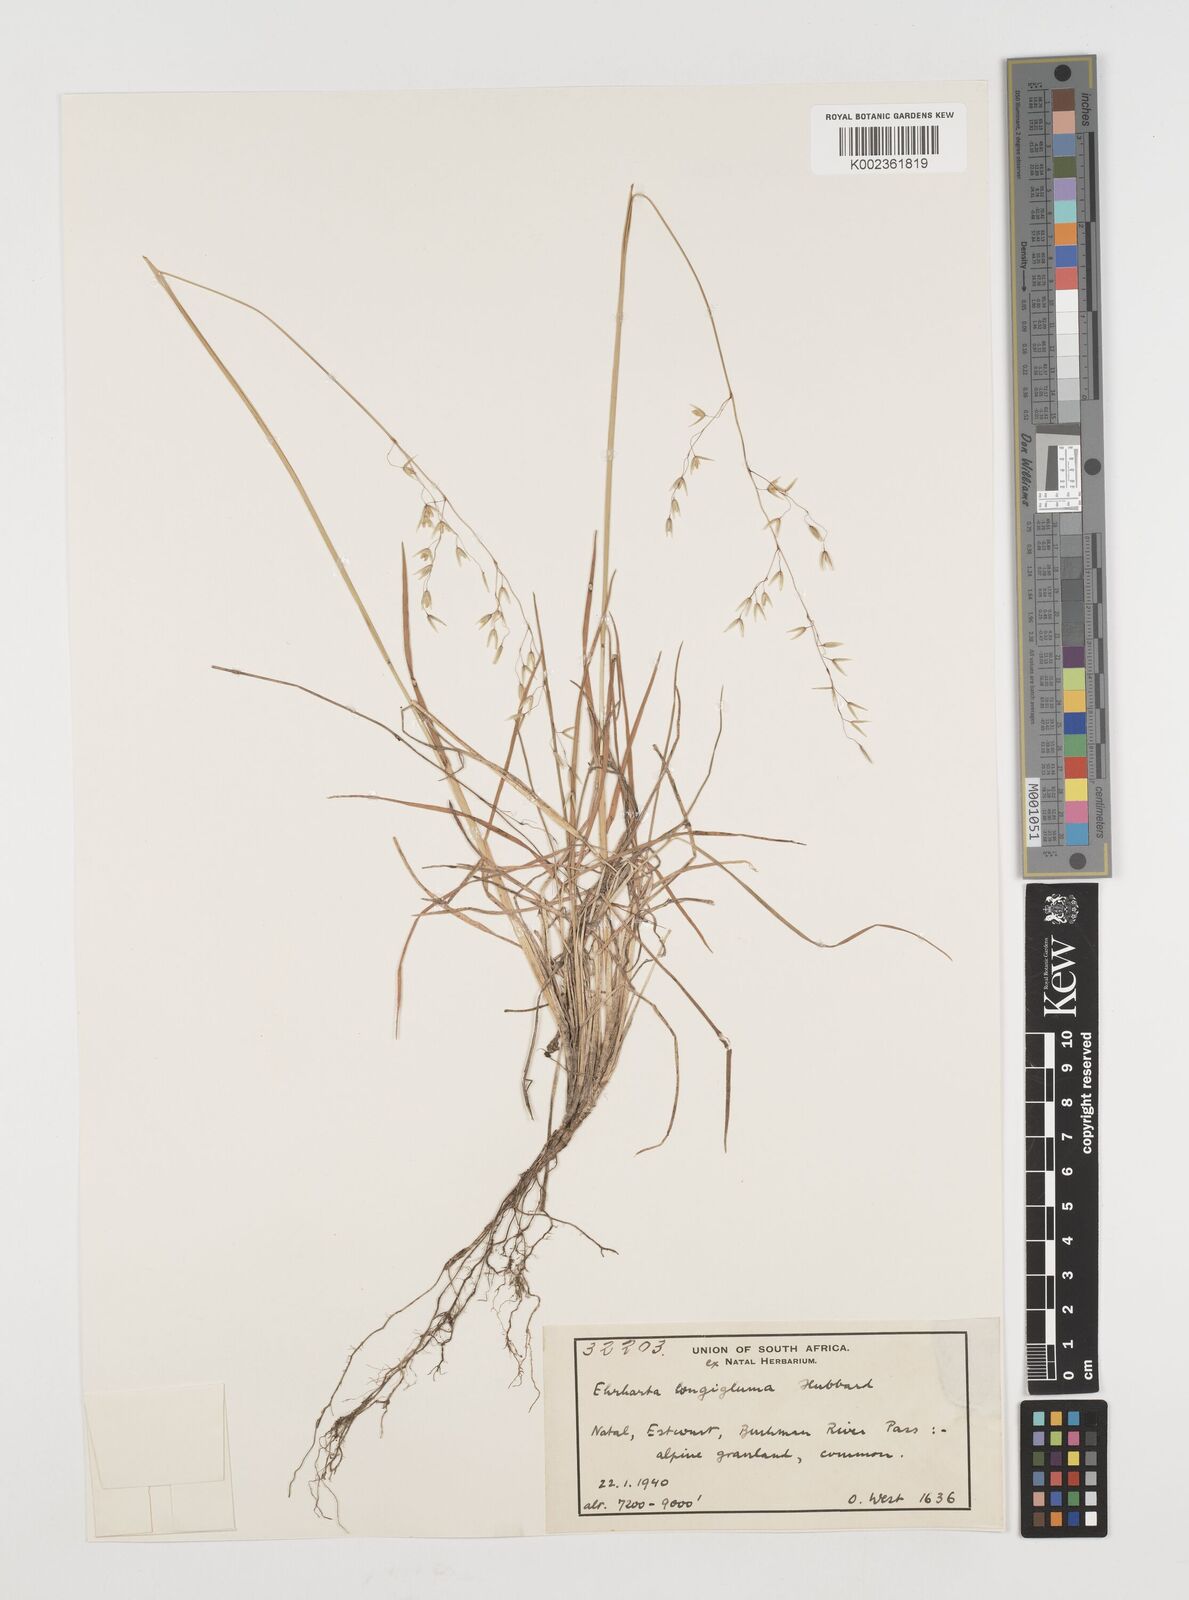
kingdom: Plantae
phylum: Tracheophyta
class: Liliopsida
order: Poales
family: Poaceae
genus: Ehrharta
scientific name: Ehrharta longigluma
